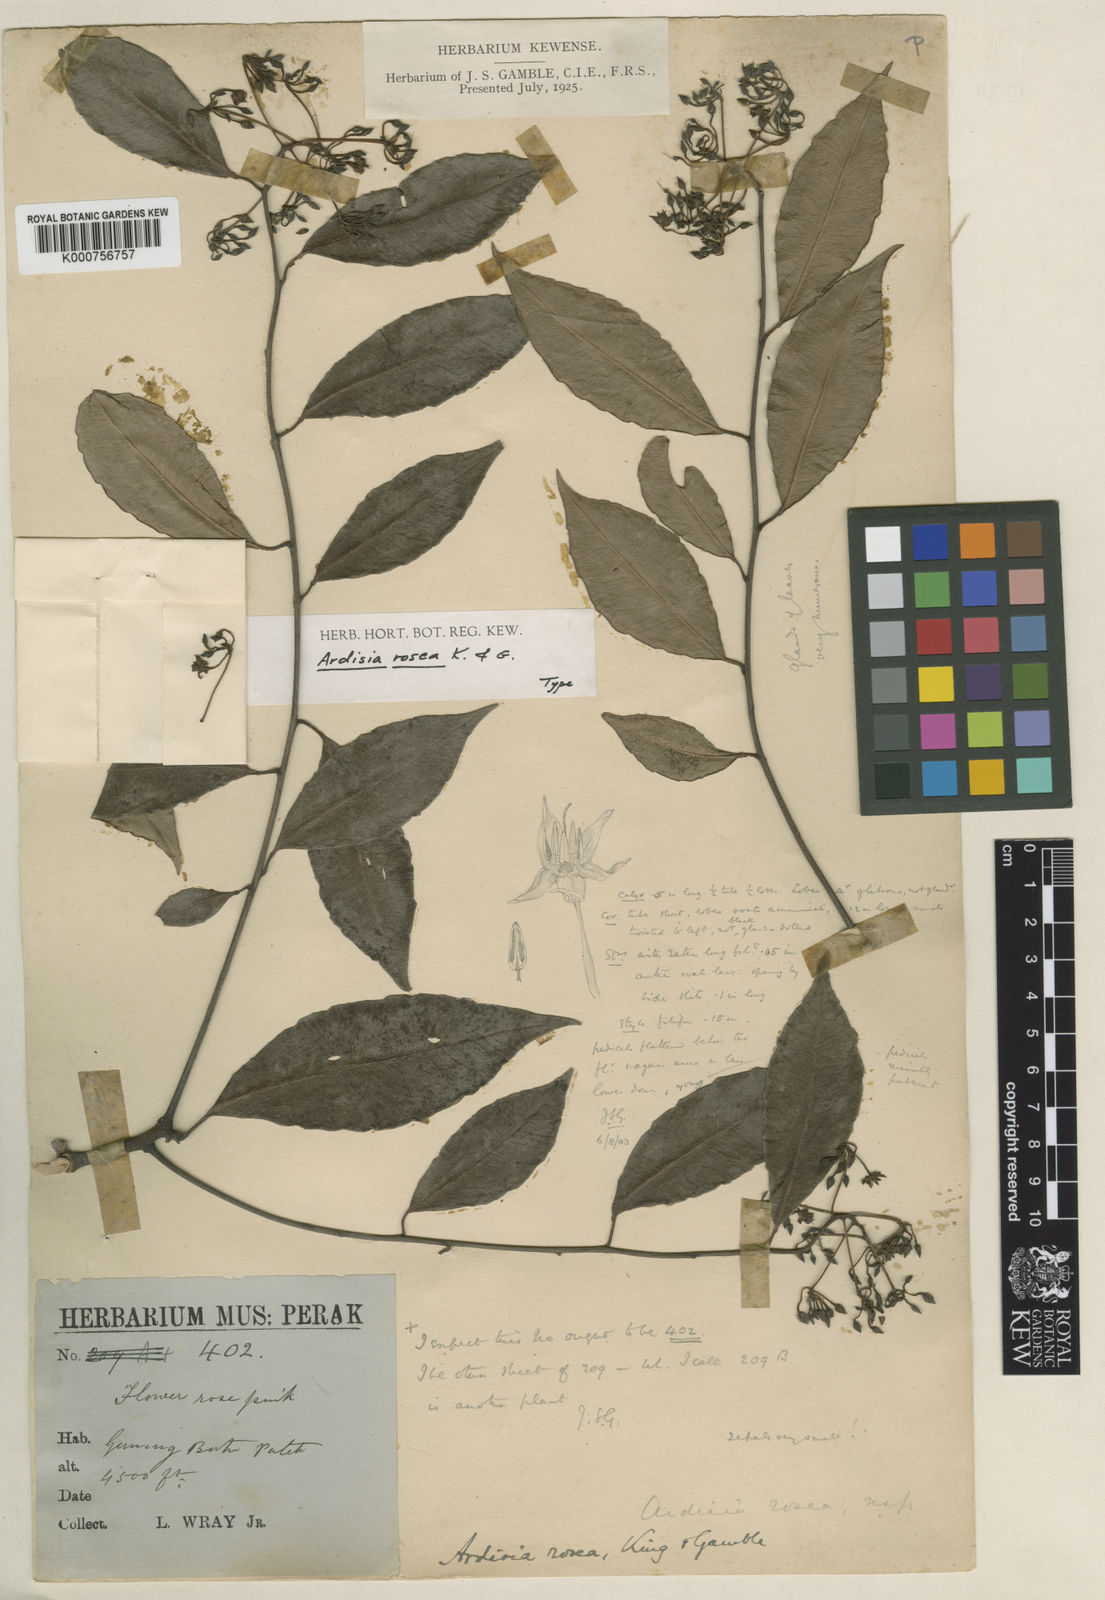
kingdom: Plantae
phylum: Tracheophyta
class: Magnoliopsida
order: Ericales
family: Primulaceae
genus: Ardisia
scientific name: Ardisia rosea
